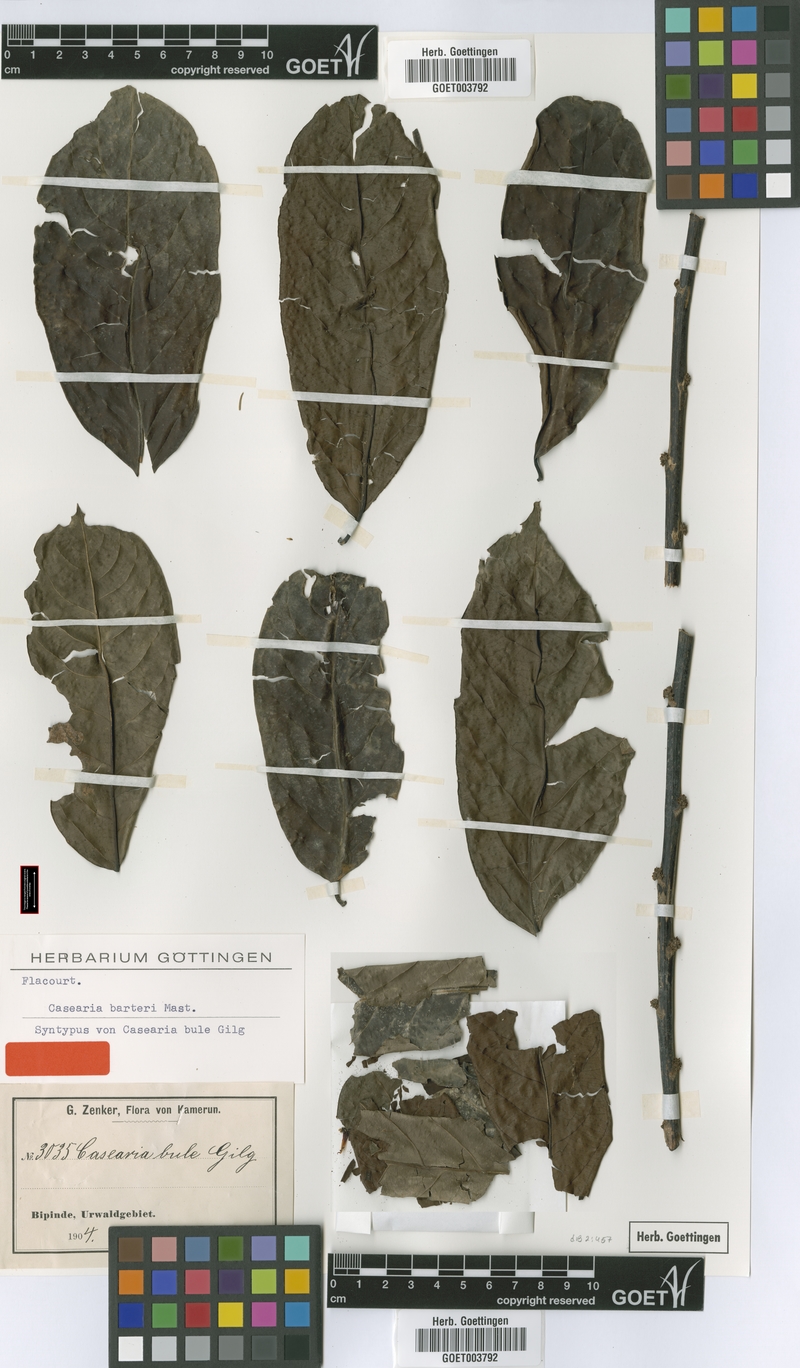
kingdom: Plantae
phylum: Tracheophyta
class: Magnoliopsida
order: Malpighiales
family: Salicaceae
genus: Casearia
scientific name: Casearia barteri
